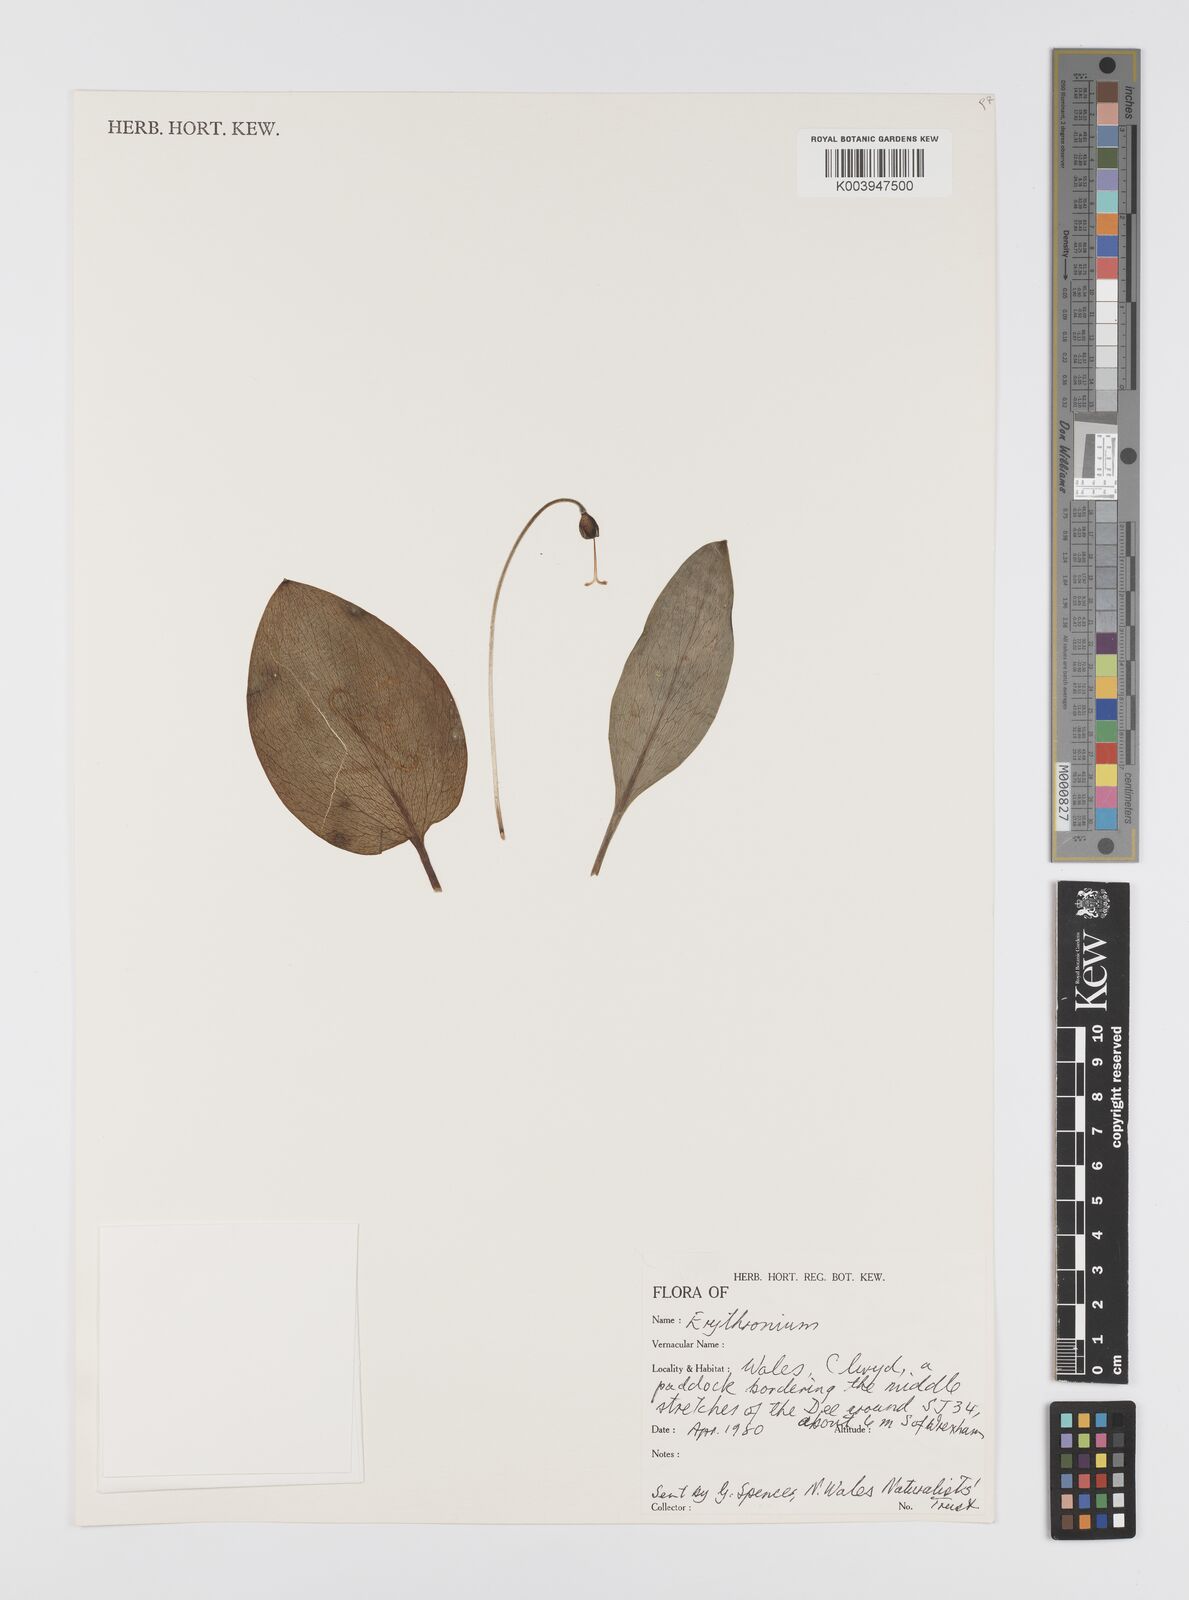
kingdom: Plantae
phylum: Tracheophyta
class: Liliopsida
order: Liliales
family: Liliaceae
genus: Erythronium
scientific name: Erythronium
